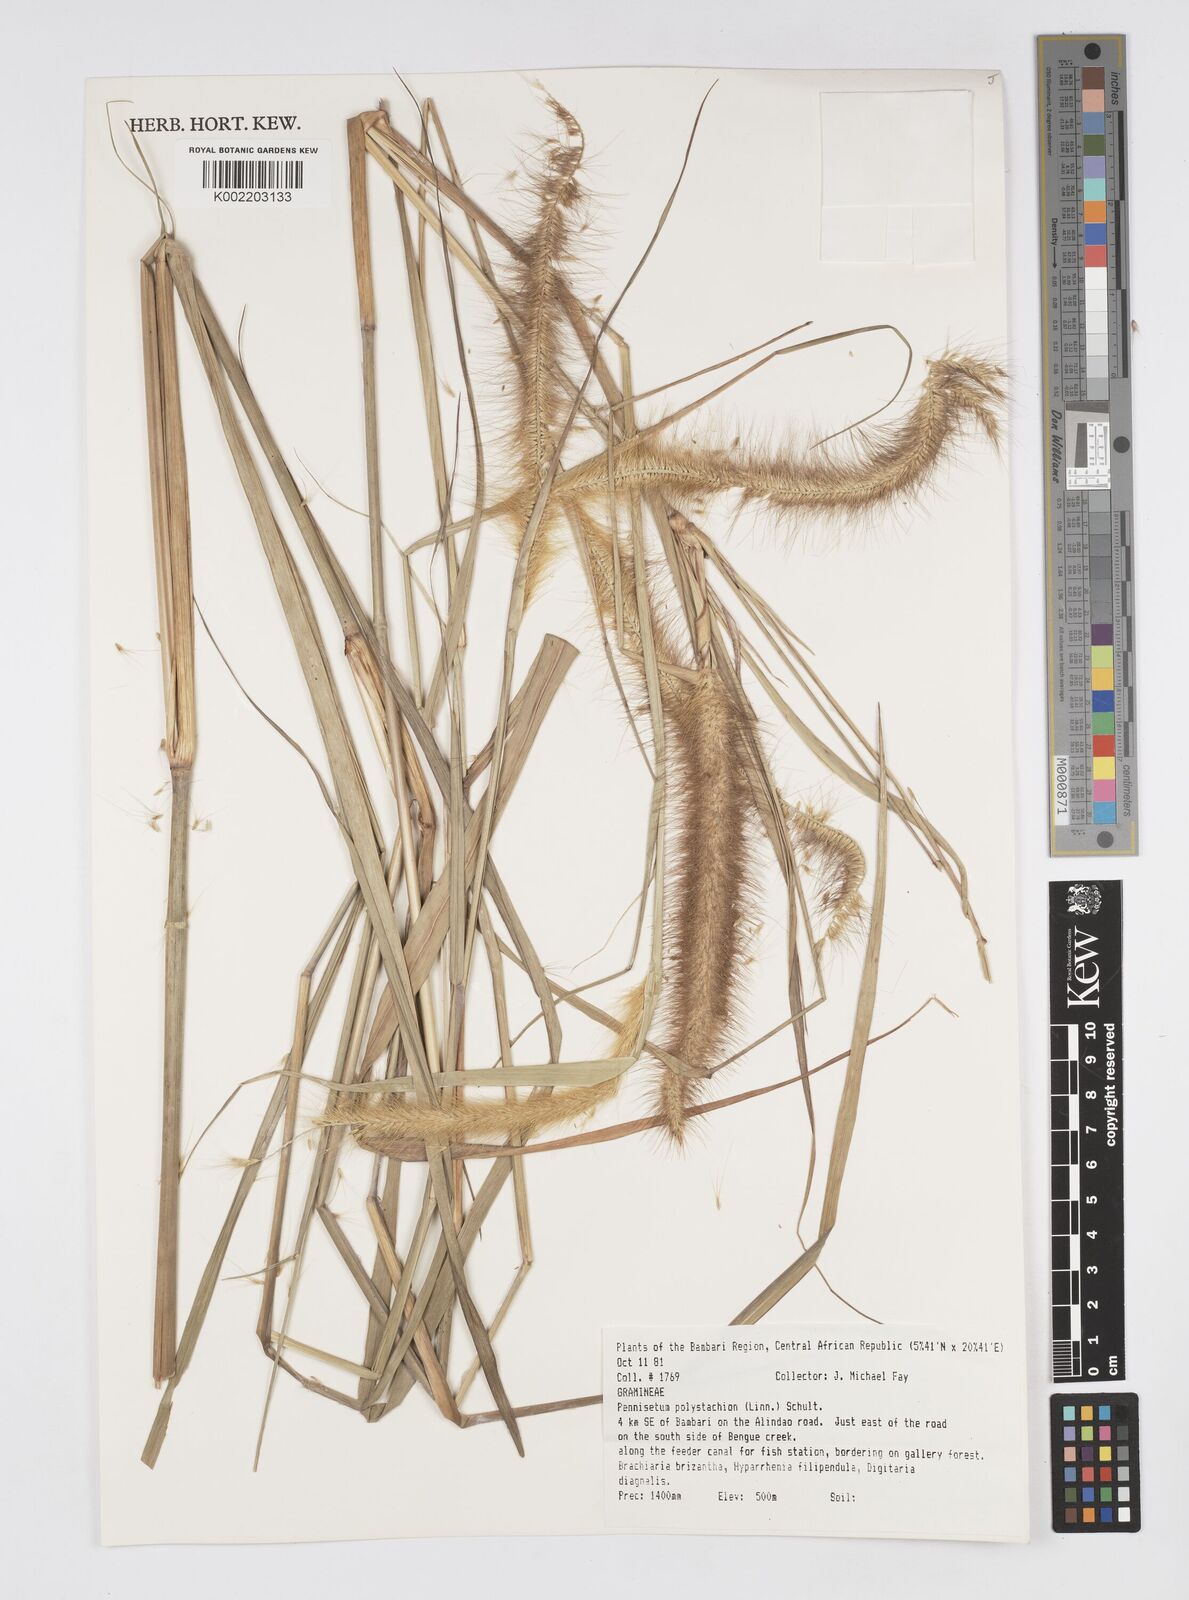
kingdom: Plantae
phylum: Tracheophyta
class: Liliopsida
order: Poales
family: Poaceae
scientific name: Poaceae
